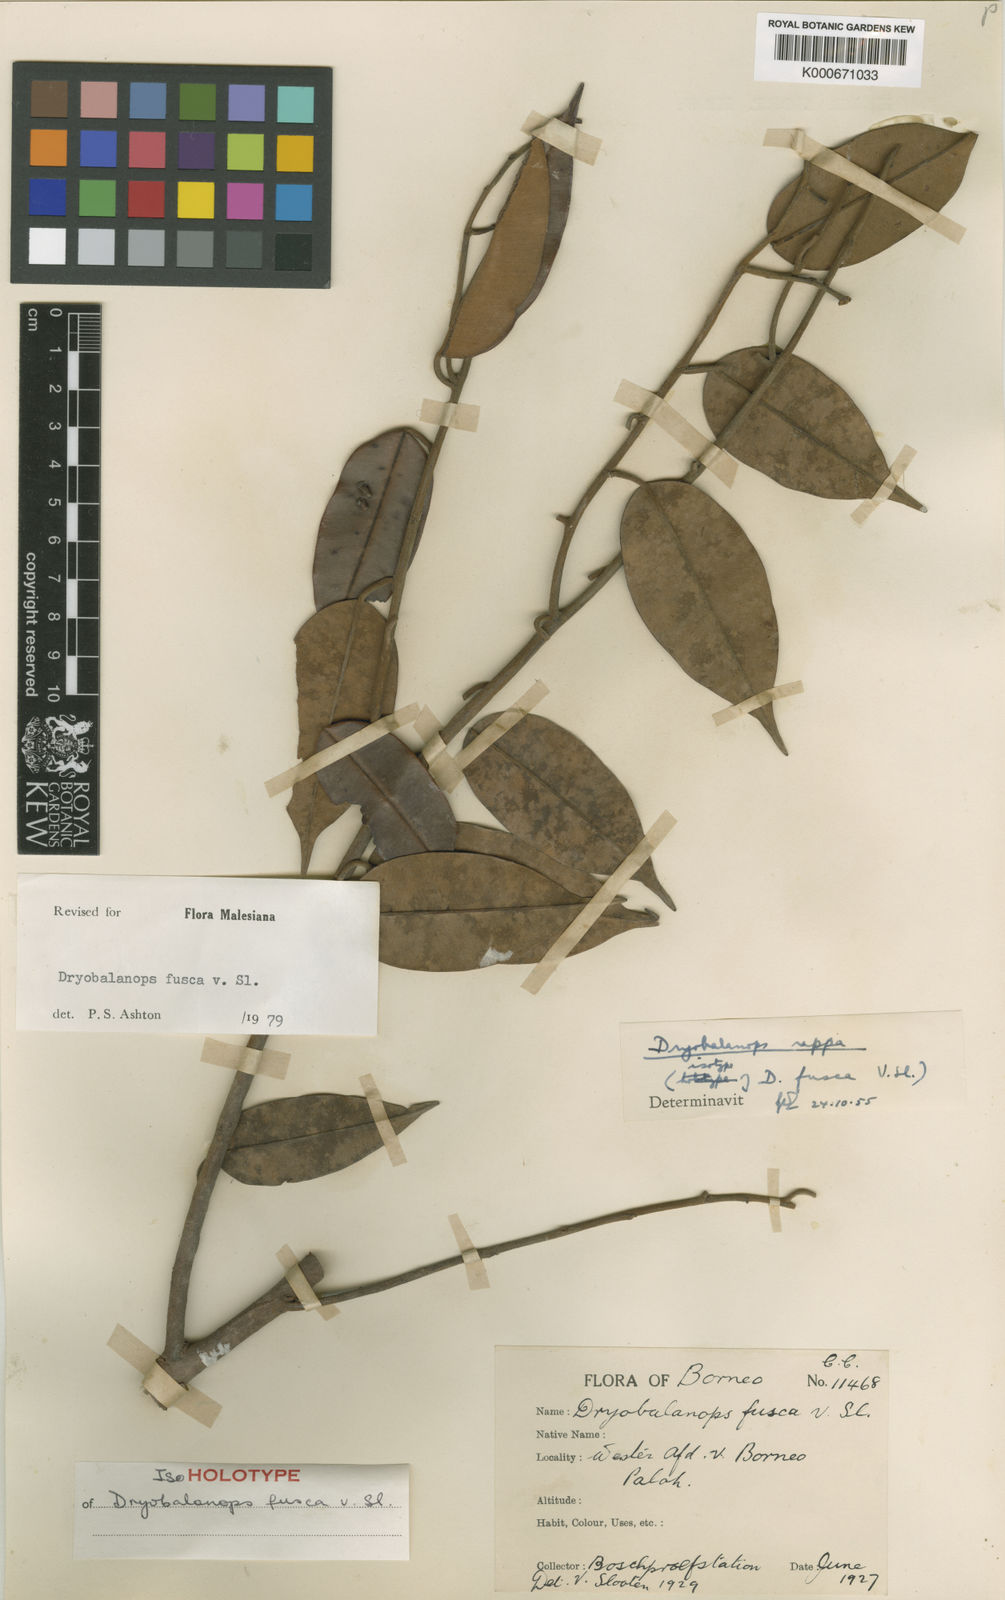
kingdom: Plantae
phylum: Tracheophyta
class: Magnoliopsida
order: Malvales
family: Dipterocarpaceae
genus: Dryobalanops
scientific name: Dryobalanops fusca
